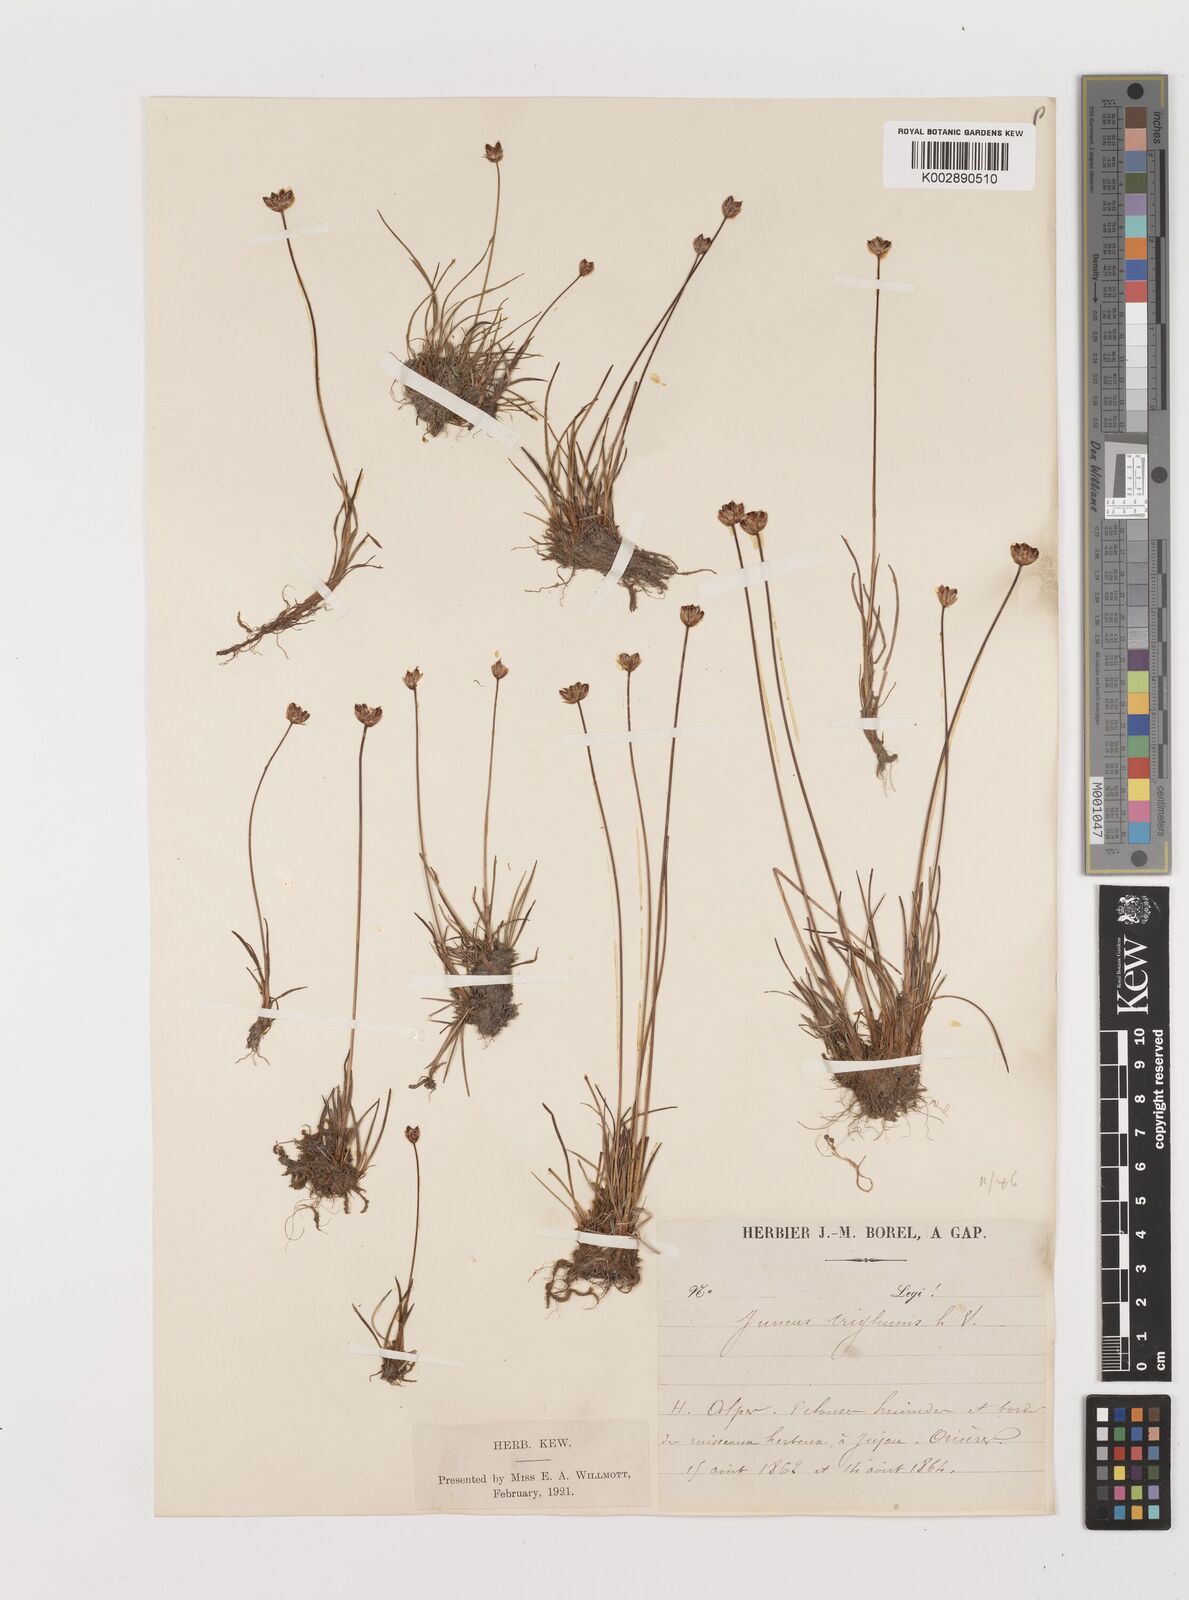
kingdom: Plantae
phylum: Tracheophyta
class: Liliopsida
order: Poales
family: Juncaceae
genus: Juncus
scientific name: Juncus triglumis
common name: Three-flowered rush
